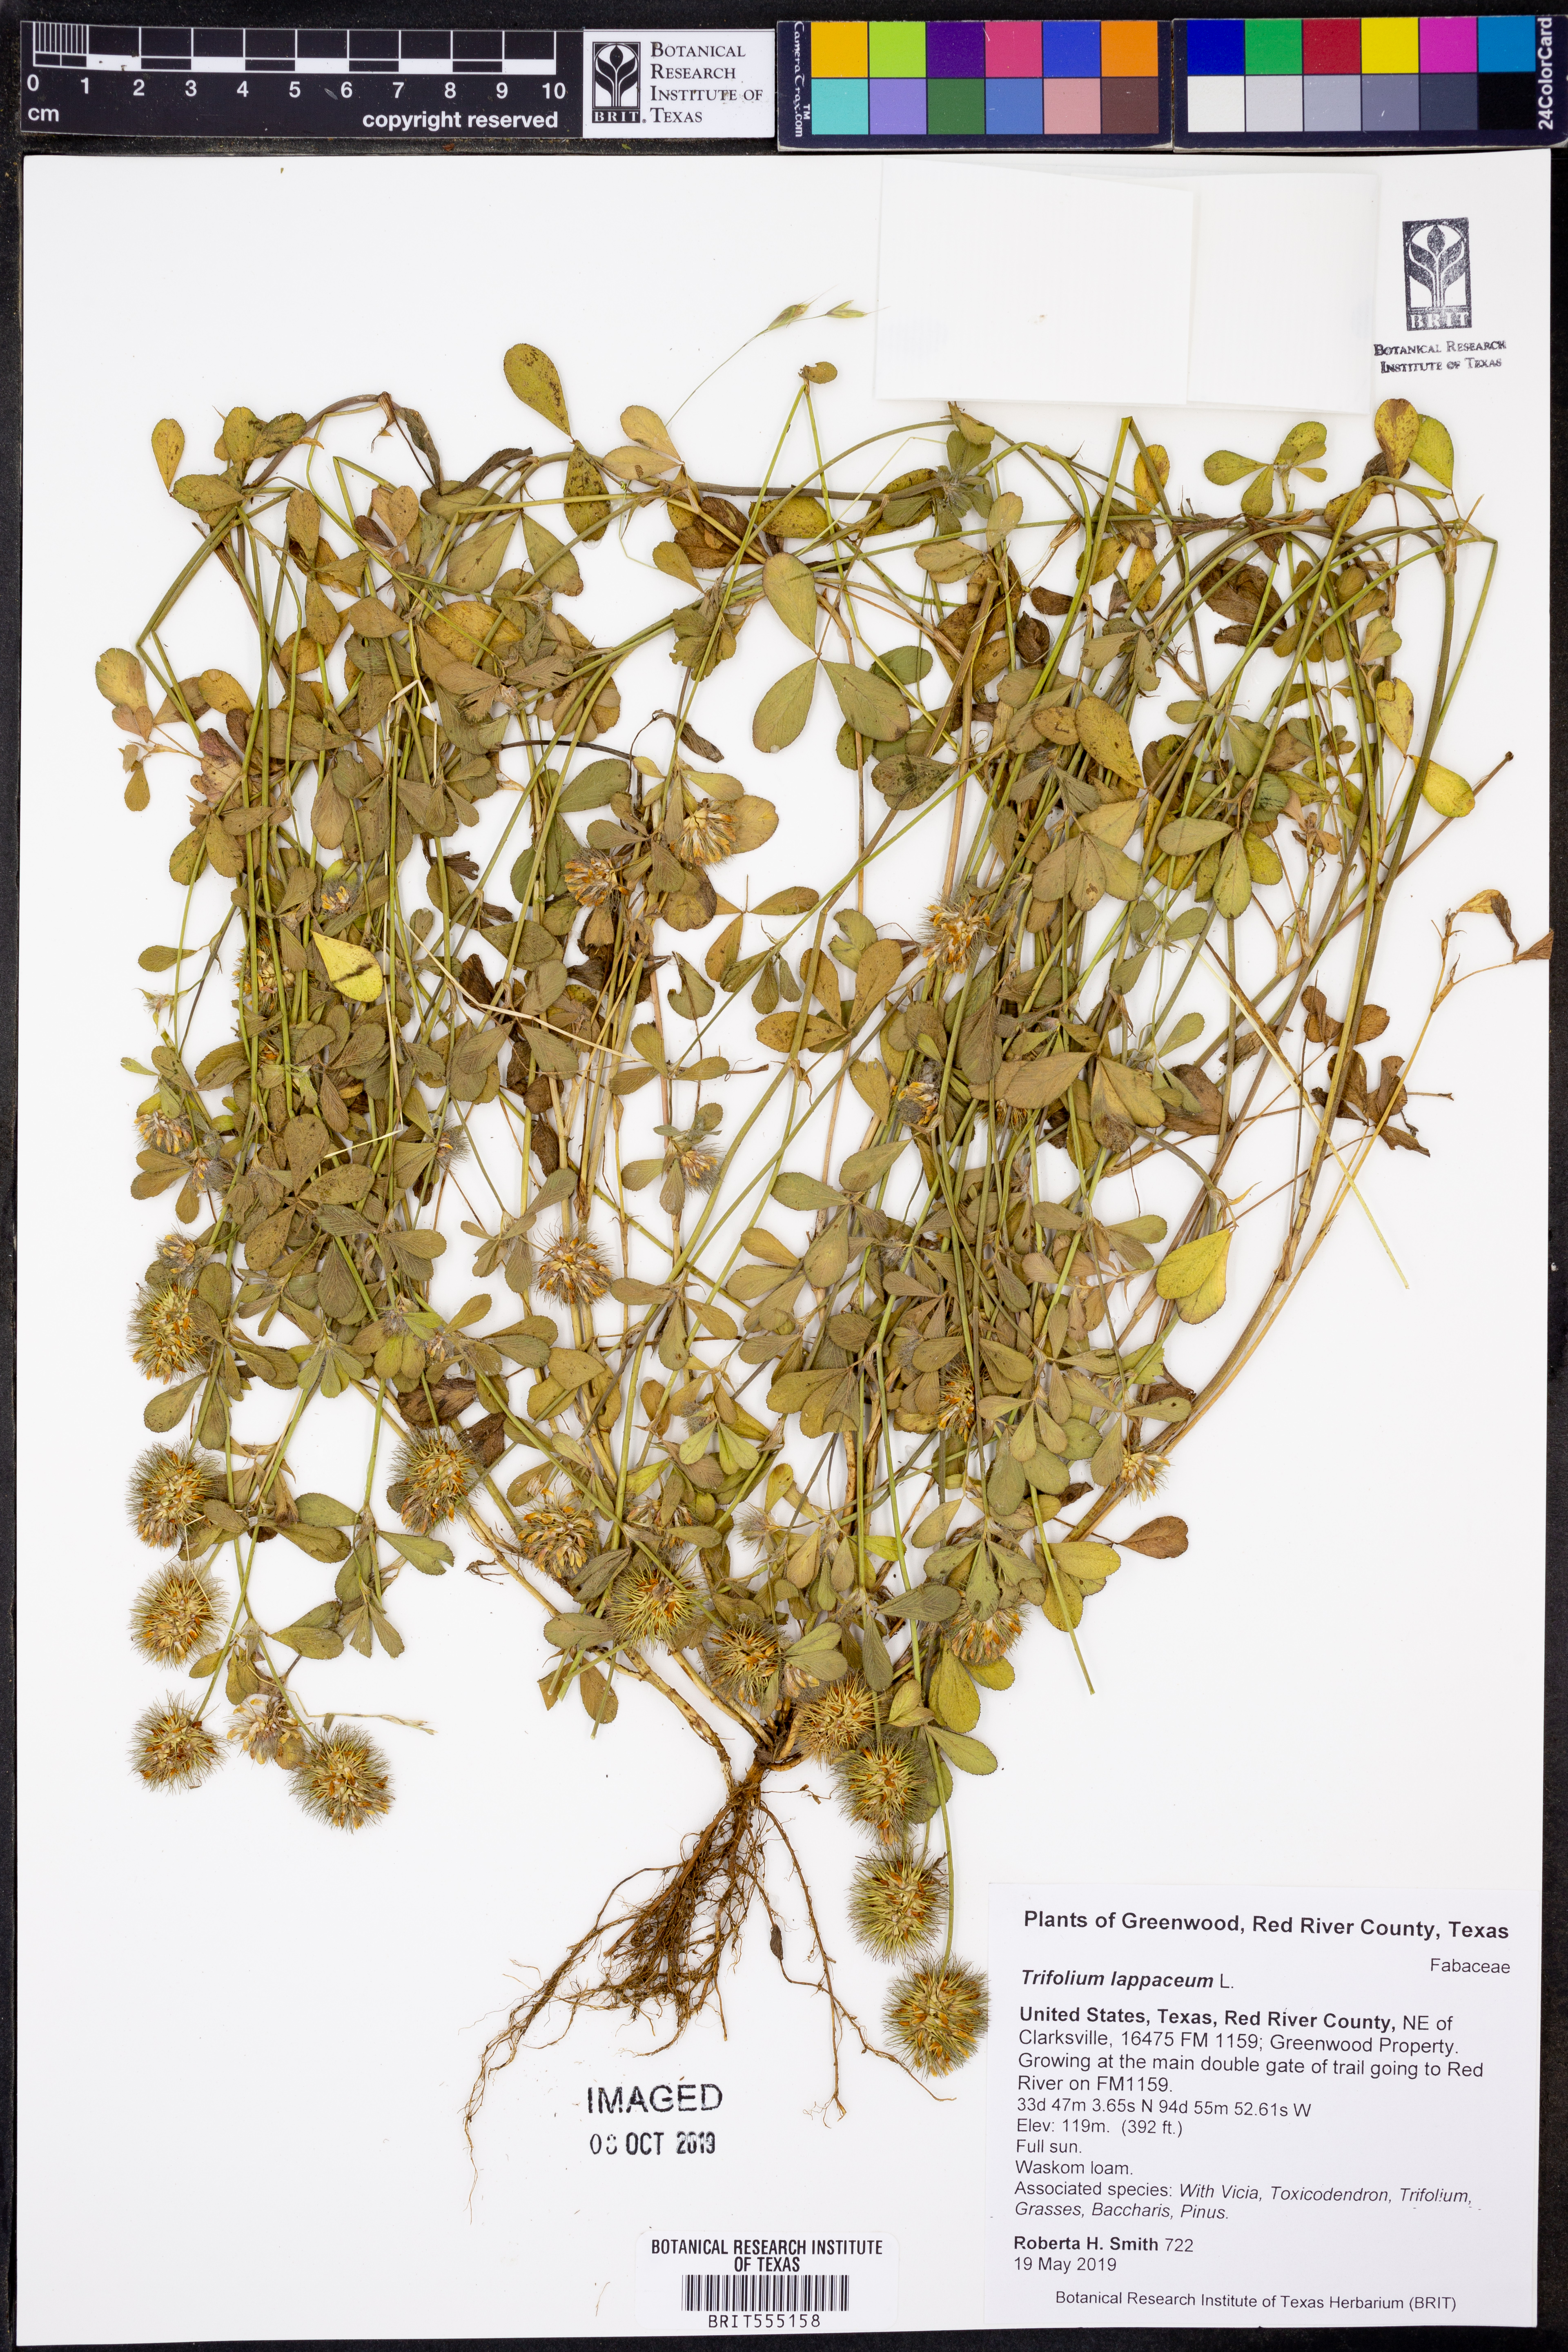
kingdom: Plantae
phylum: Tracheophyta
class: Magnoliopsida
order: Fabales
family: Fabaceae
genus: Trifolium
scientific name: Trifolium lappaceum
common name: Bur clover
